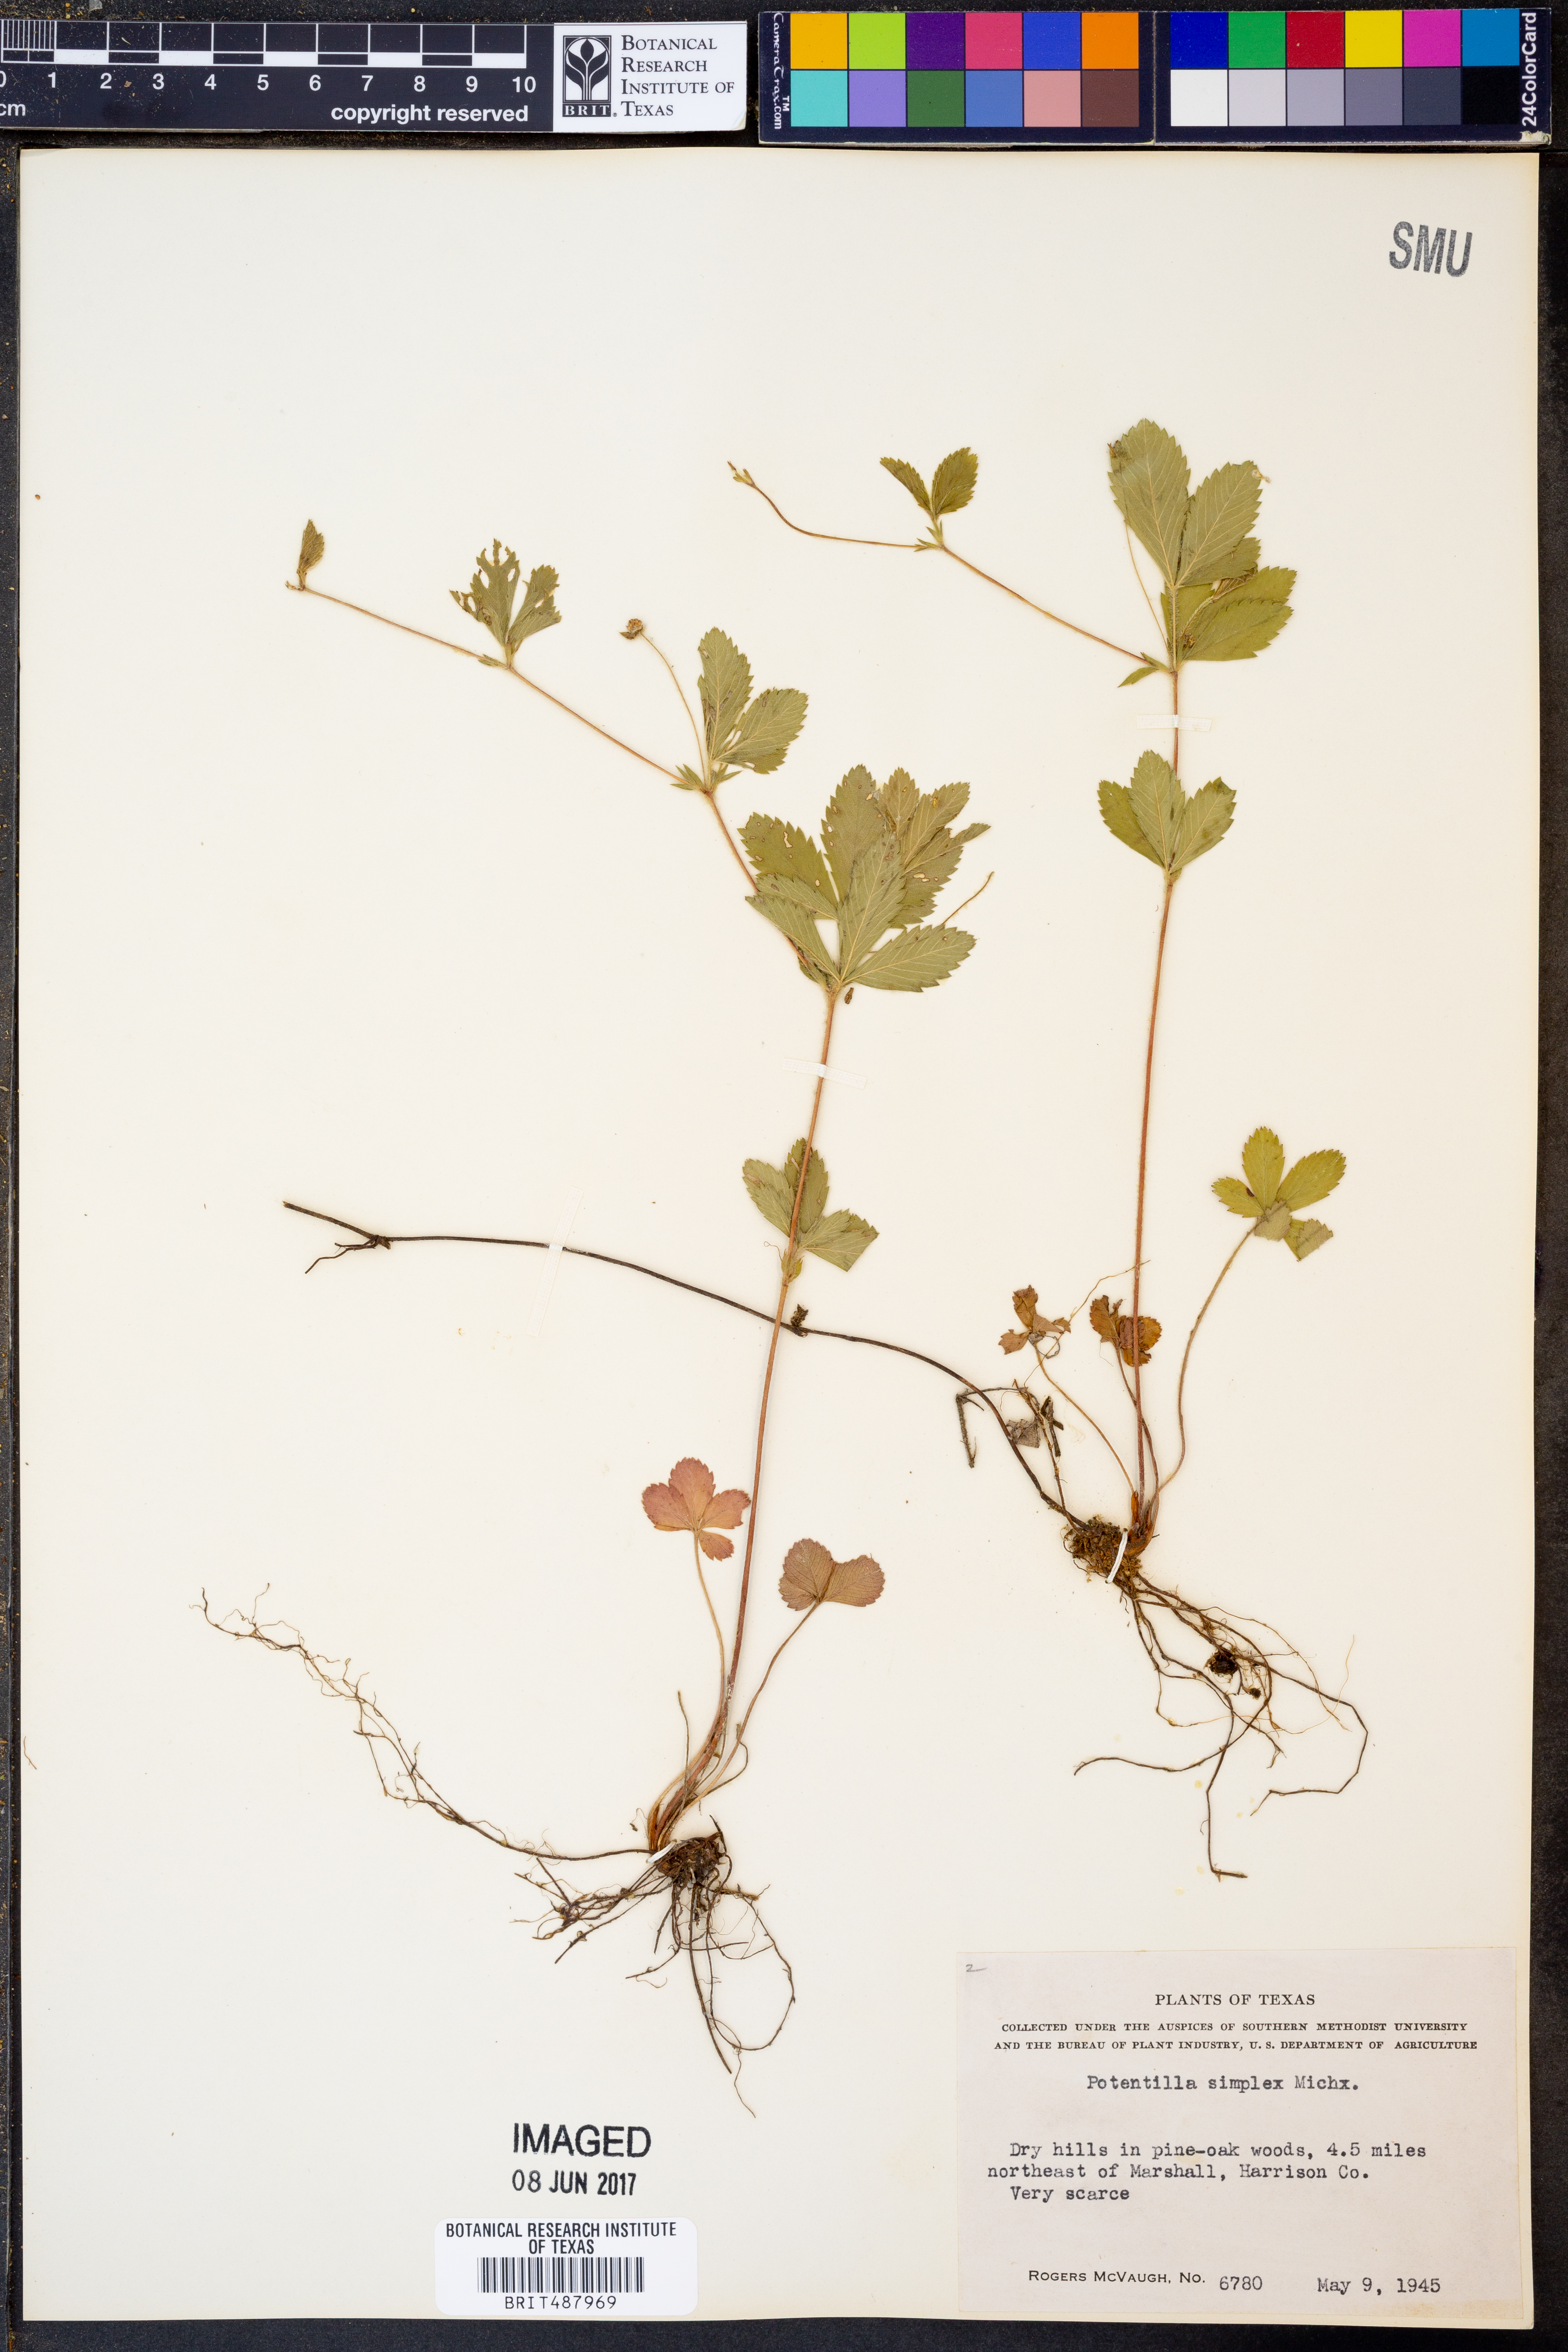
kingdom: Plantae
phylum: Tracheophyta
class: Magnoliopsida
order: Rosales
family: Rosaceae
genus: Potentilla
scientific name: Potentilla simplex
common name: Old field cinquefoil
